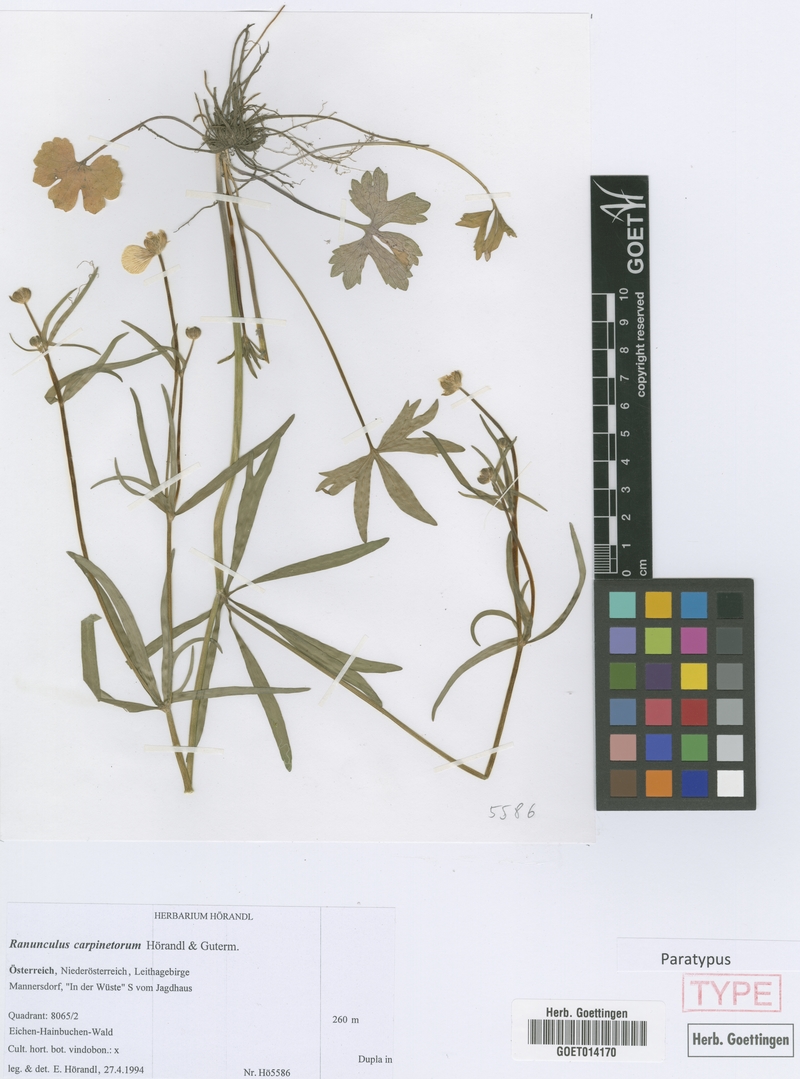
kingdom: Plantae
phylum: Tracheophyta
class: Magnoliopsida
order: Ranunculales
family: Ranunculaceae
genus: Ranunculus
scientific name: Ranunculus carpinetorum
